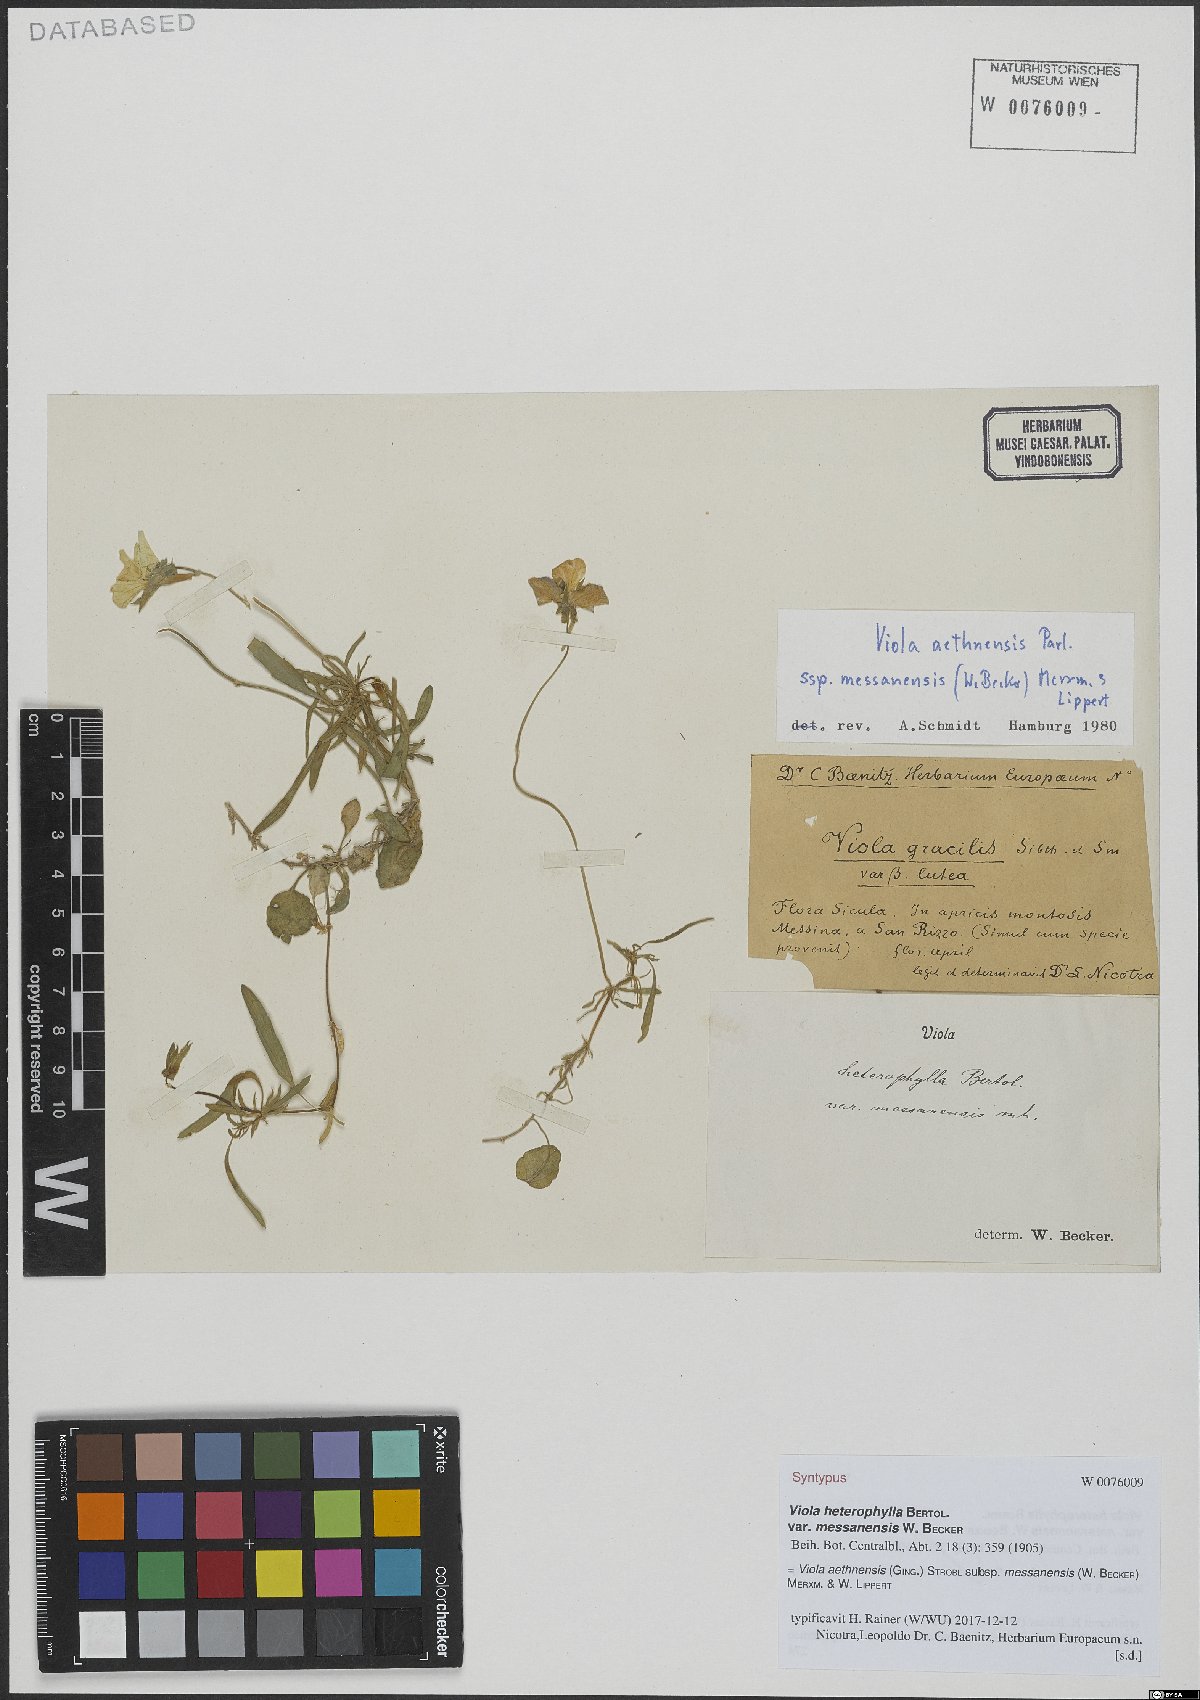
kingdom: Plantae
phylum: Tracheophyta
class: Magnoliopsida
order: Malpighiales
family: Violaceae
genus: Viola
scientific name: Viola aethnensis
